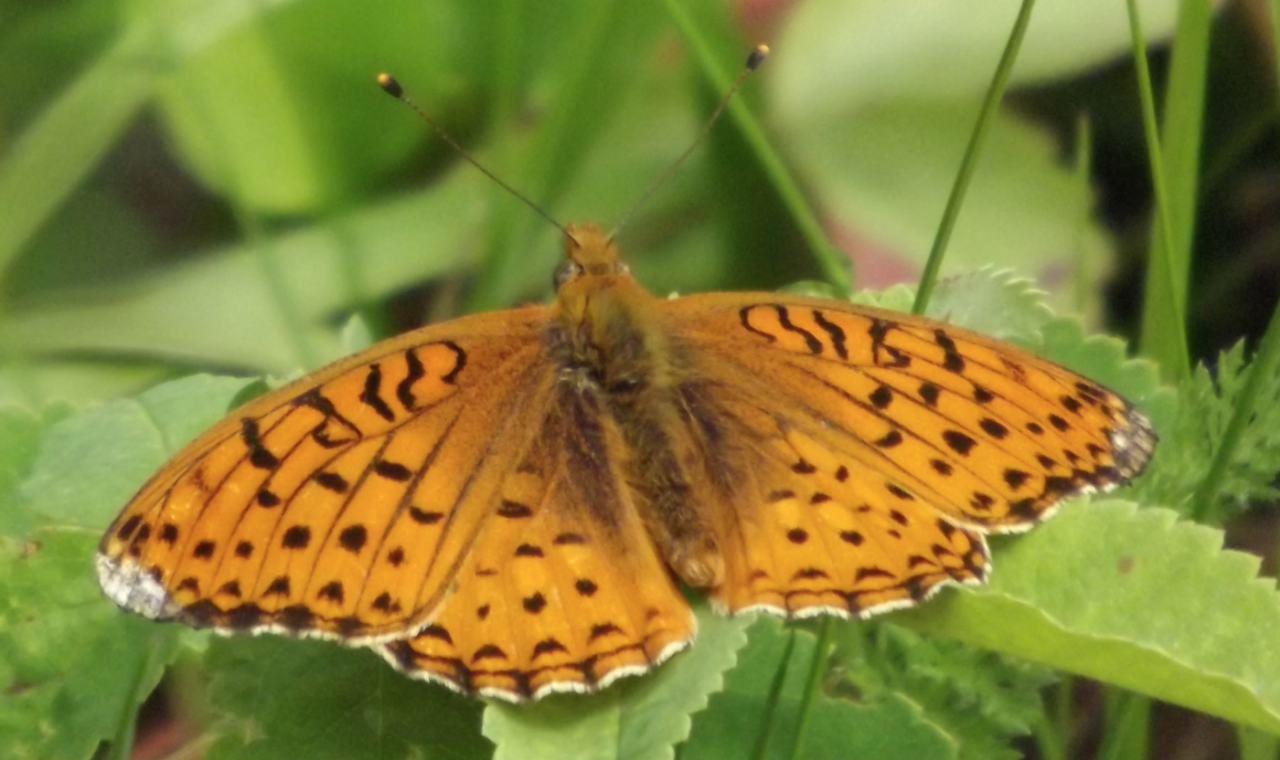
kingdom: Animalia
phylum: Arthropoda
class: Insecta
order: Lepidoptera
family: Nymphalidae
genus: Speyeria
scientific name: Speyeria atlantis
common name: Northwestern Fritillary
